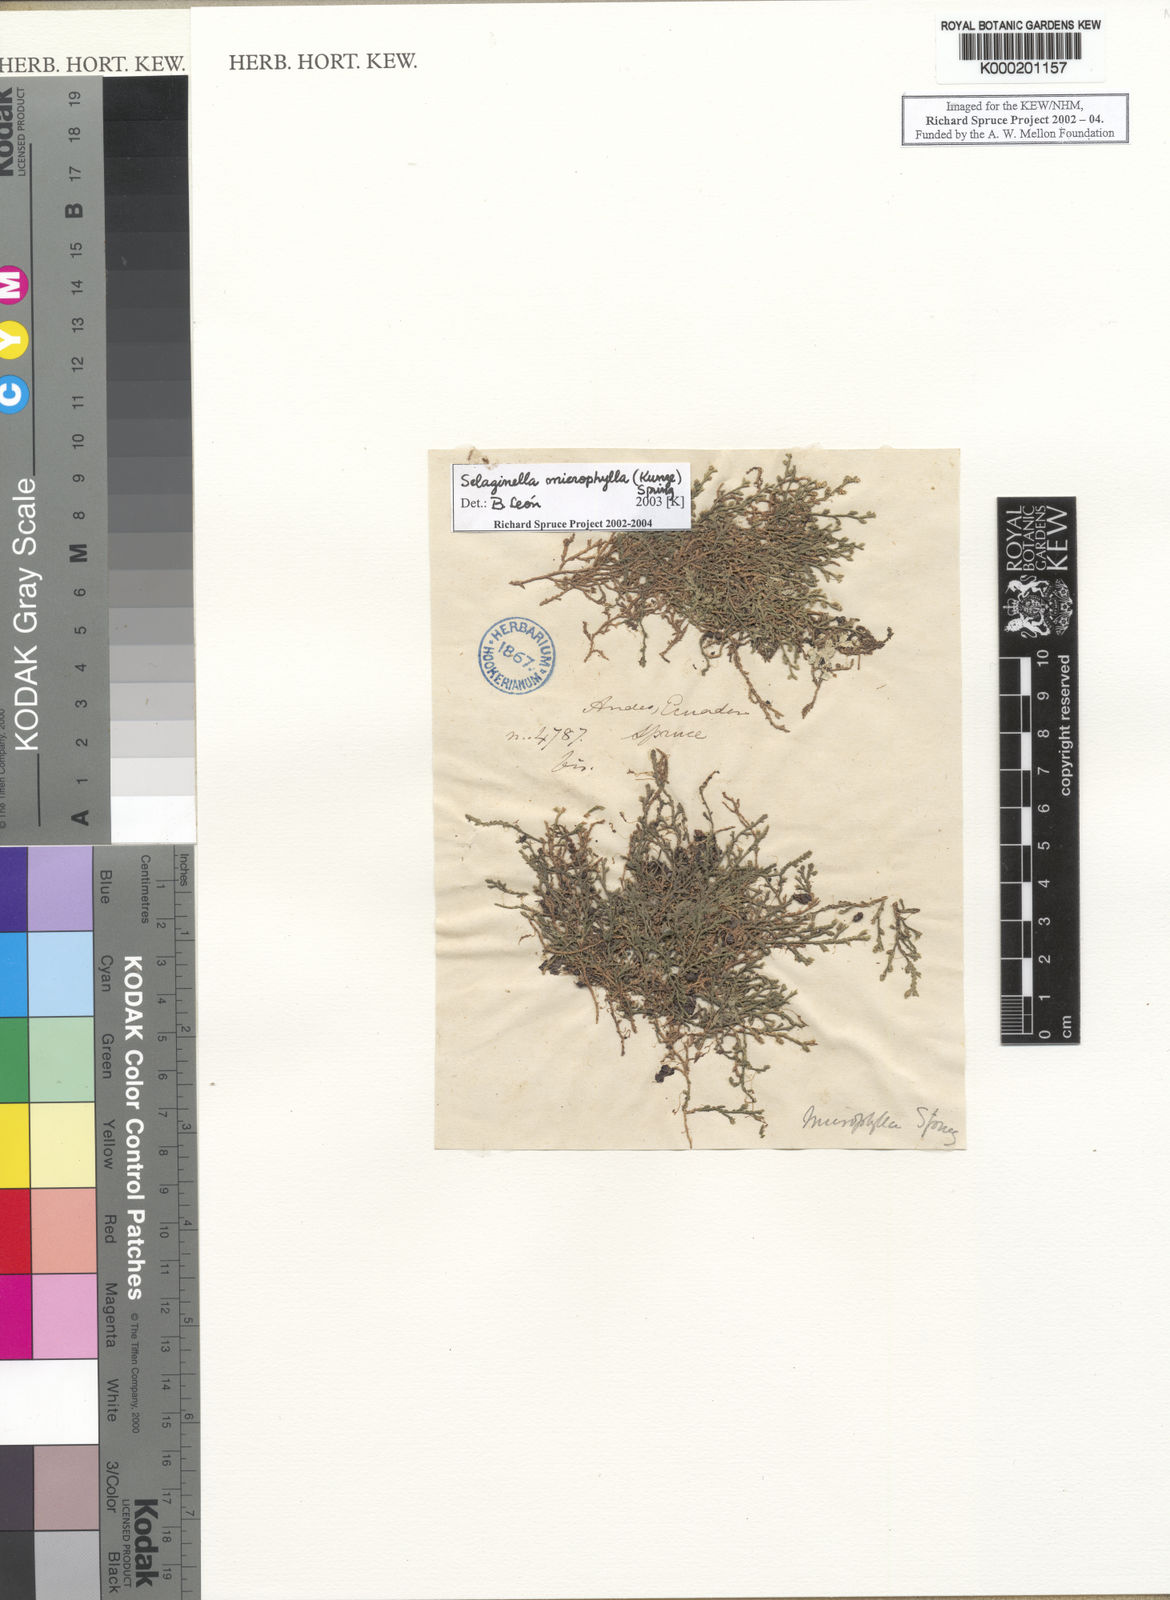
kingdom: Plantae
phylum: Tracheophyta
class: Lycopodiopsida
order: Selaginellales
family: Selaginellaceae
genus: Selaginella
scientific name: Selaginella microphylla
